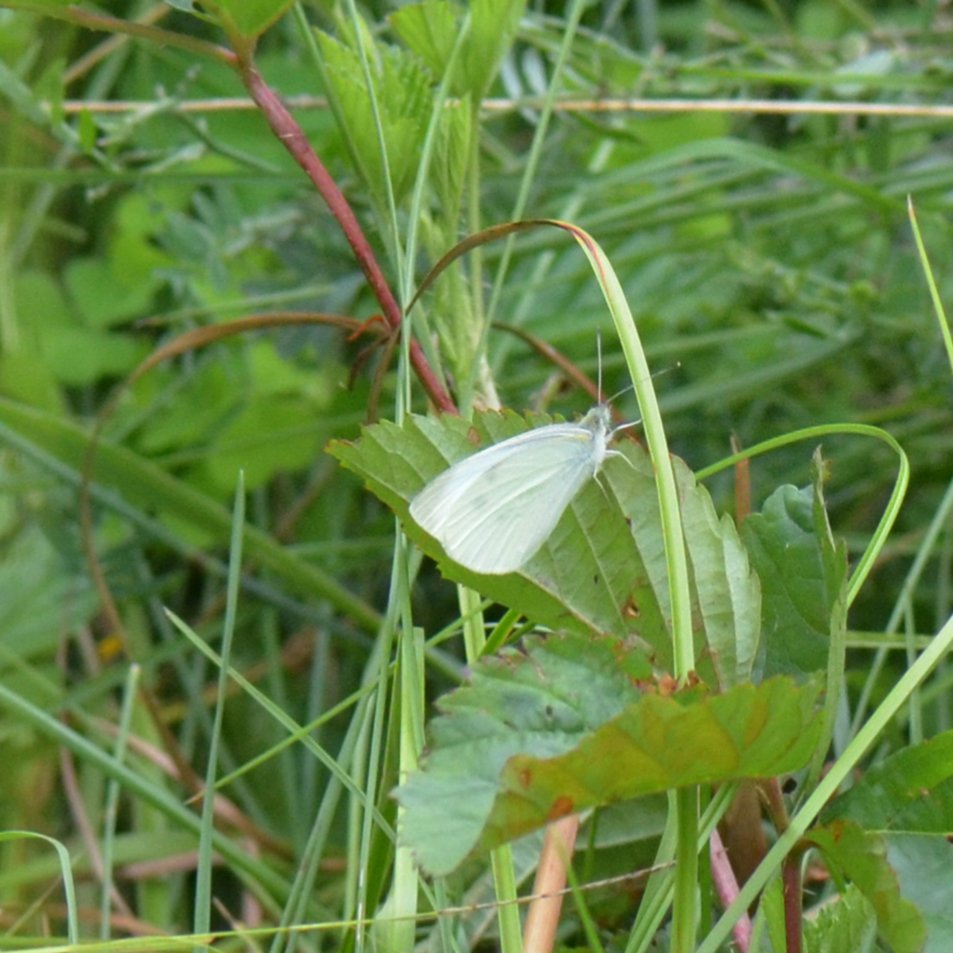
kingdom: Animalia
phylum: Arthropoda
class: Insecta
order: Lepidoptera
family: Pieridae
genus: Pieris
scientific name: Pieris rapae
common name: Cabbage White
